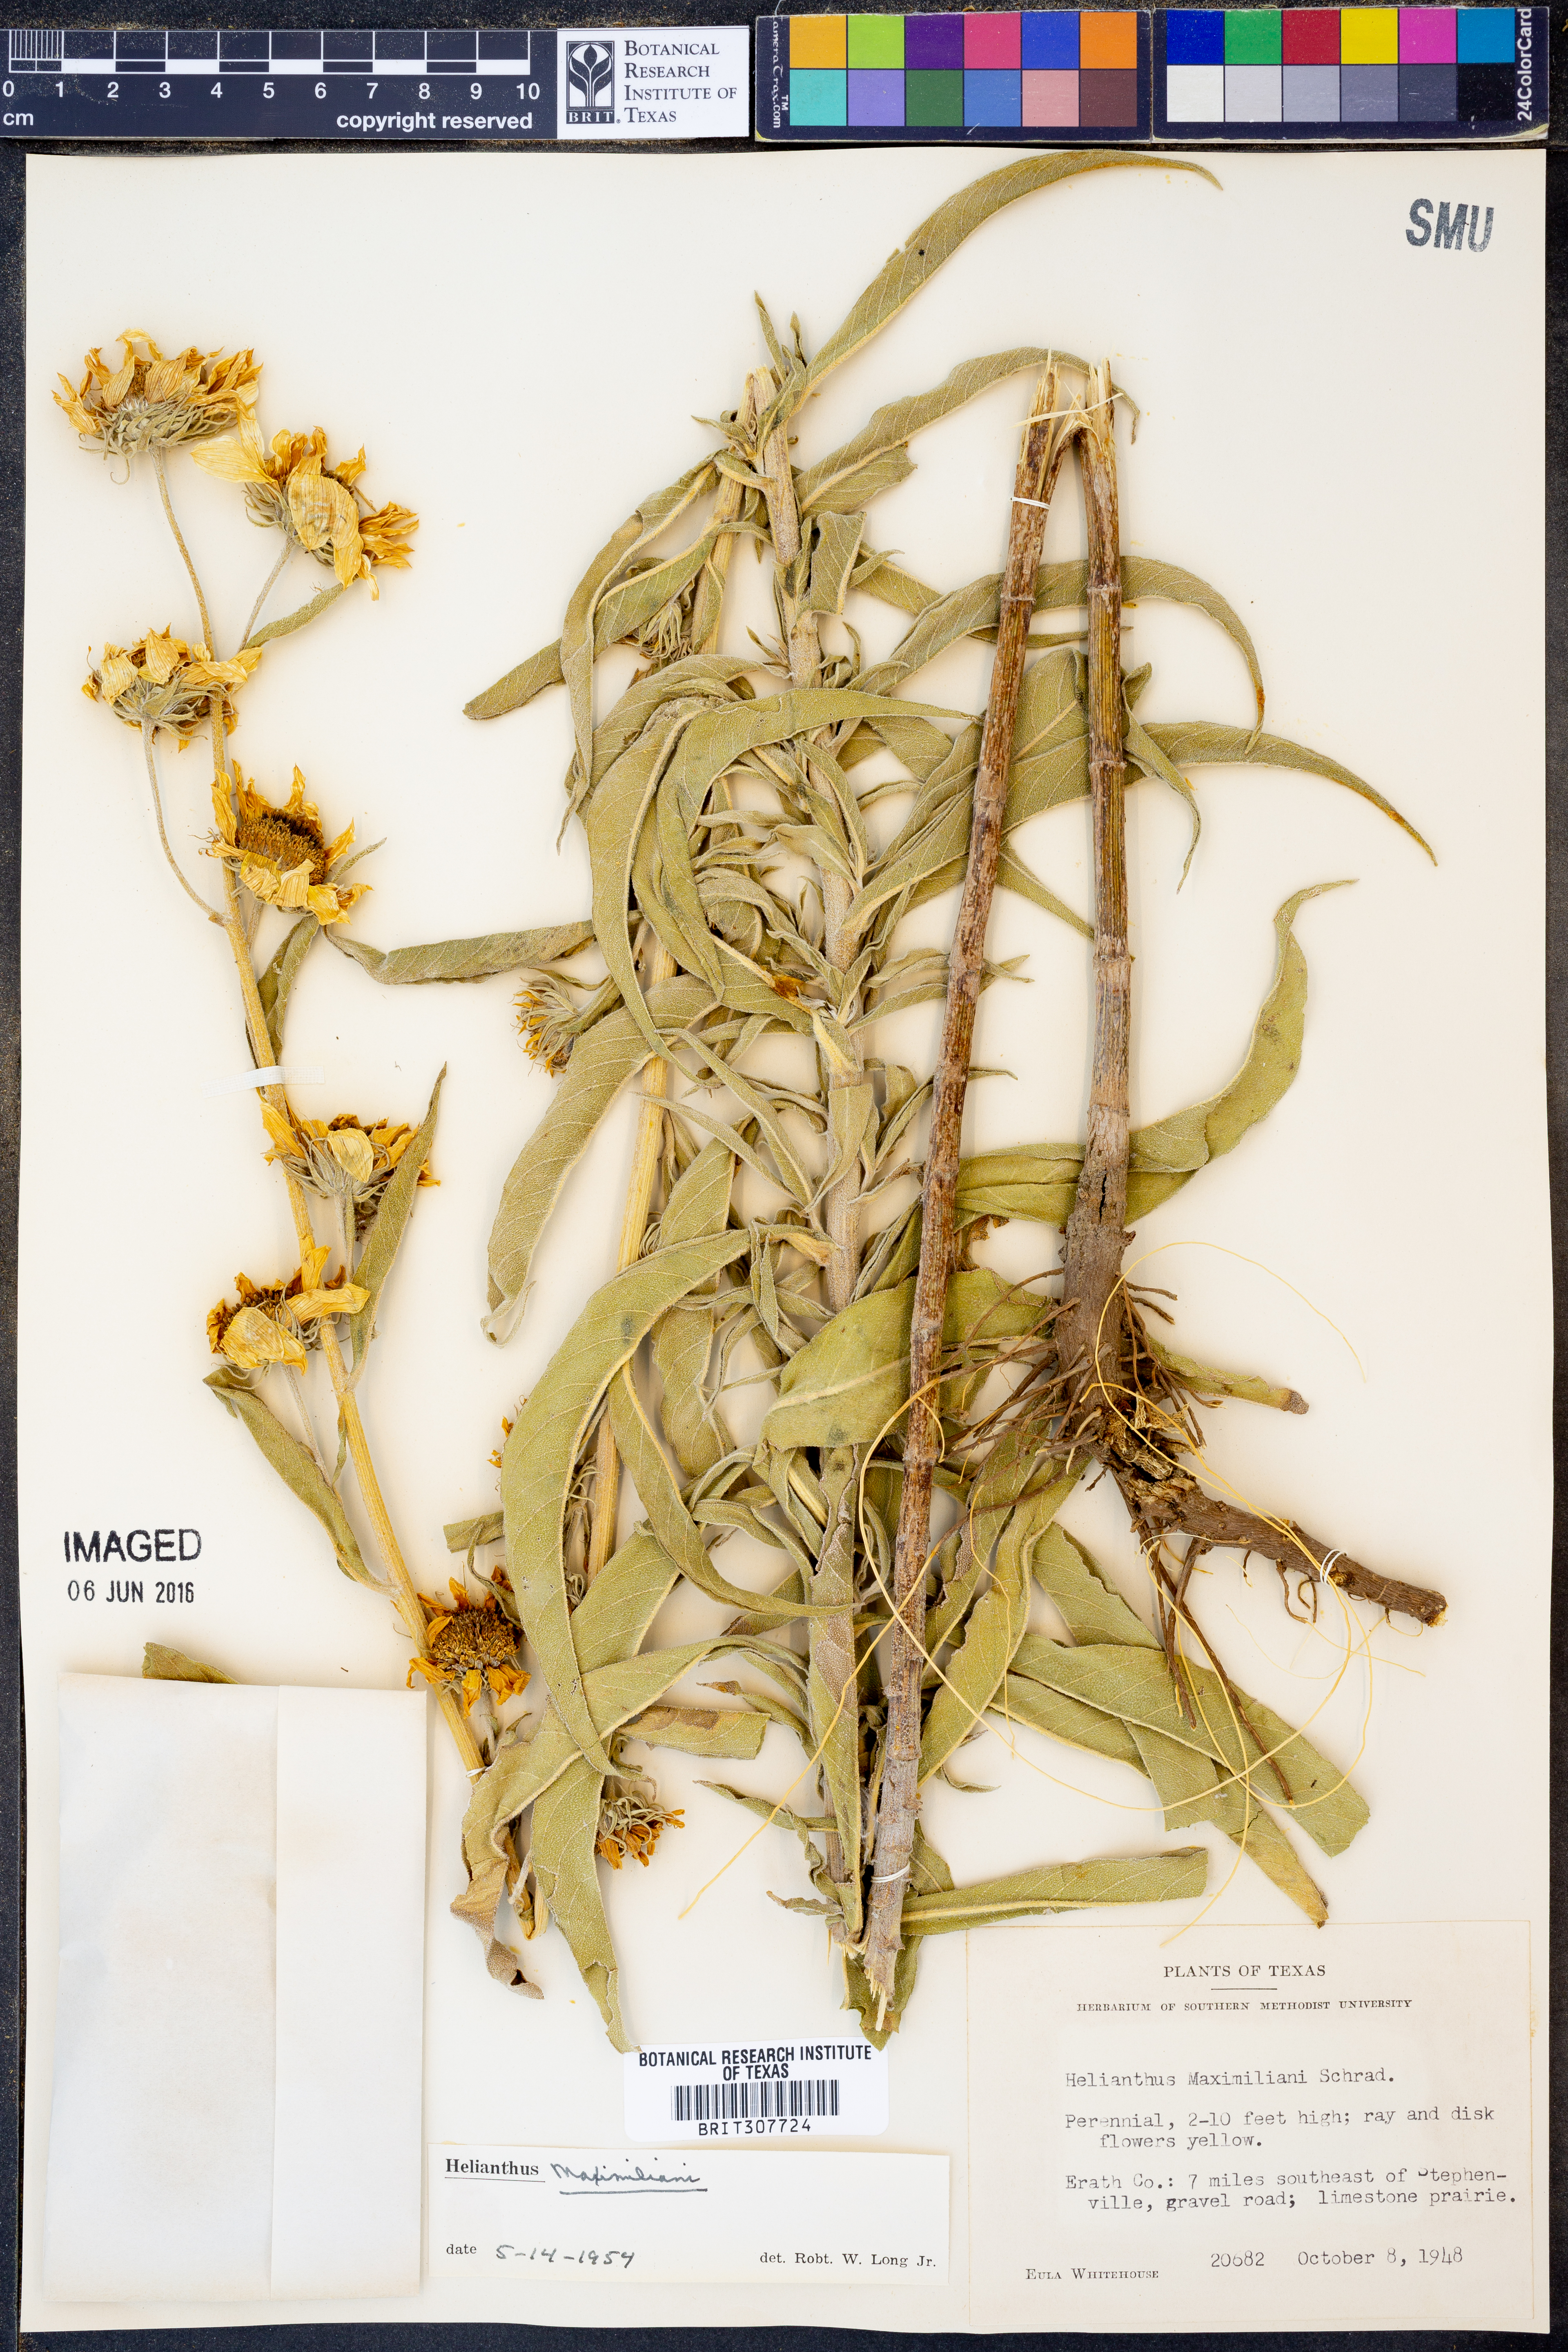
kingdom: Plantae
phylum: Tracheophyta
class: Magnoliopsida
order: Asterales
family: Asteraceae
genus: Helianthus
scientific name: Helianthus maximiliani
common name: Maximilian's sunflower
